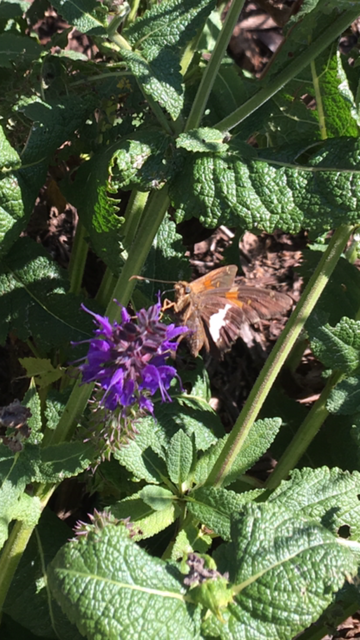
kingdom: Animalia
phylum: Arthropoda
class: Insecta
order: Lepidoptera
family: Hesperiidae
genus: Epargyreus
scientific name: Epargyreus clarus
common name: Silver-spotted Skipper
